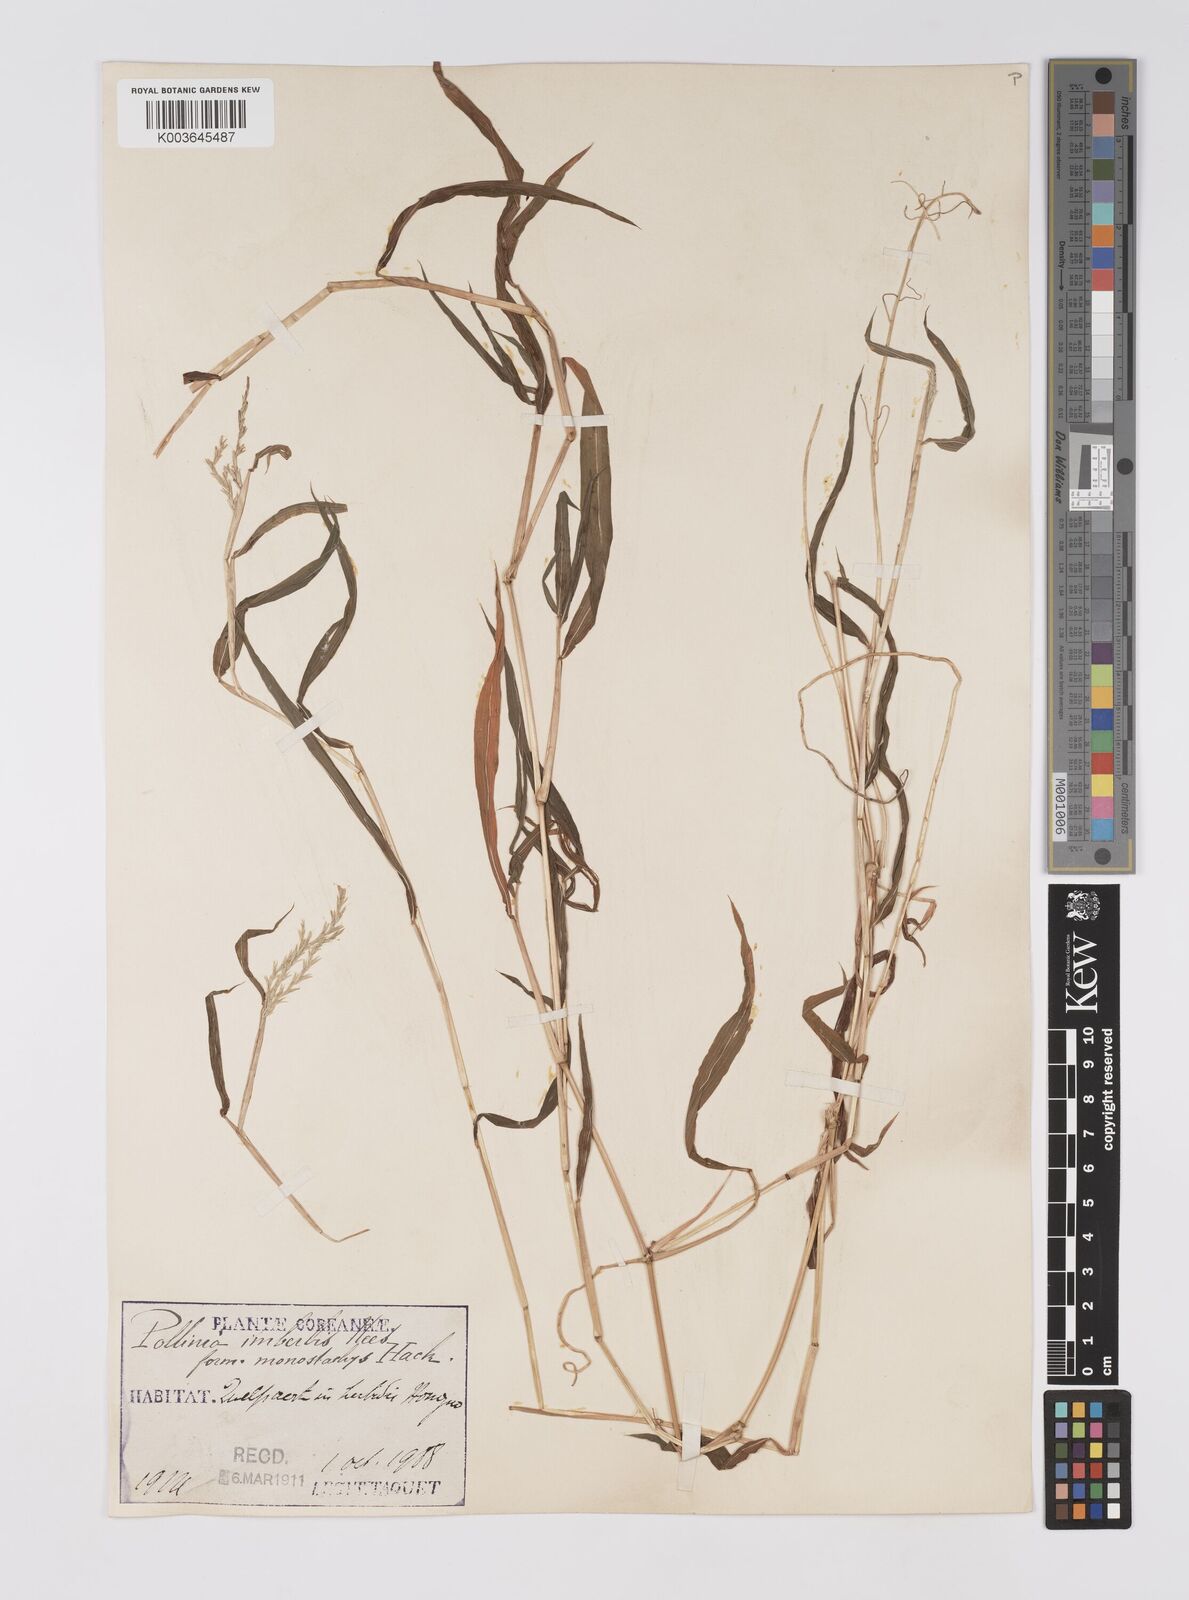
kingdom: Plantae
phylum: Tracheophyta
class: Liliopsida
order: Poales
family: Poaceae
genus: Microstegium
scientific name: Microstegium vimineum
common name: Japanese stiltgrass
